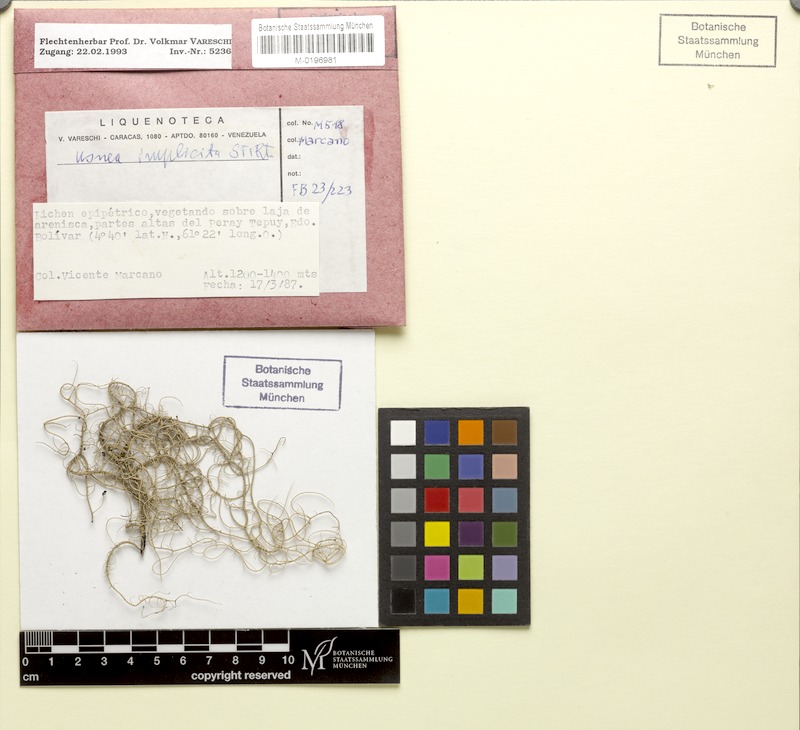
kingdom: Fungi
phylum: Ascomycota
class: Lecanoromycetes
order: Lecanorales
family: Parmeliaceae
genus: Eumitria
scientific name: Eumitria baileyi
